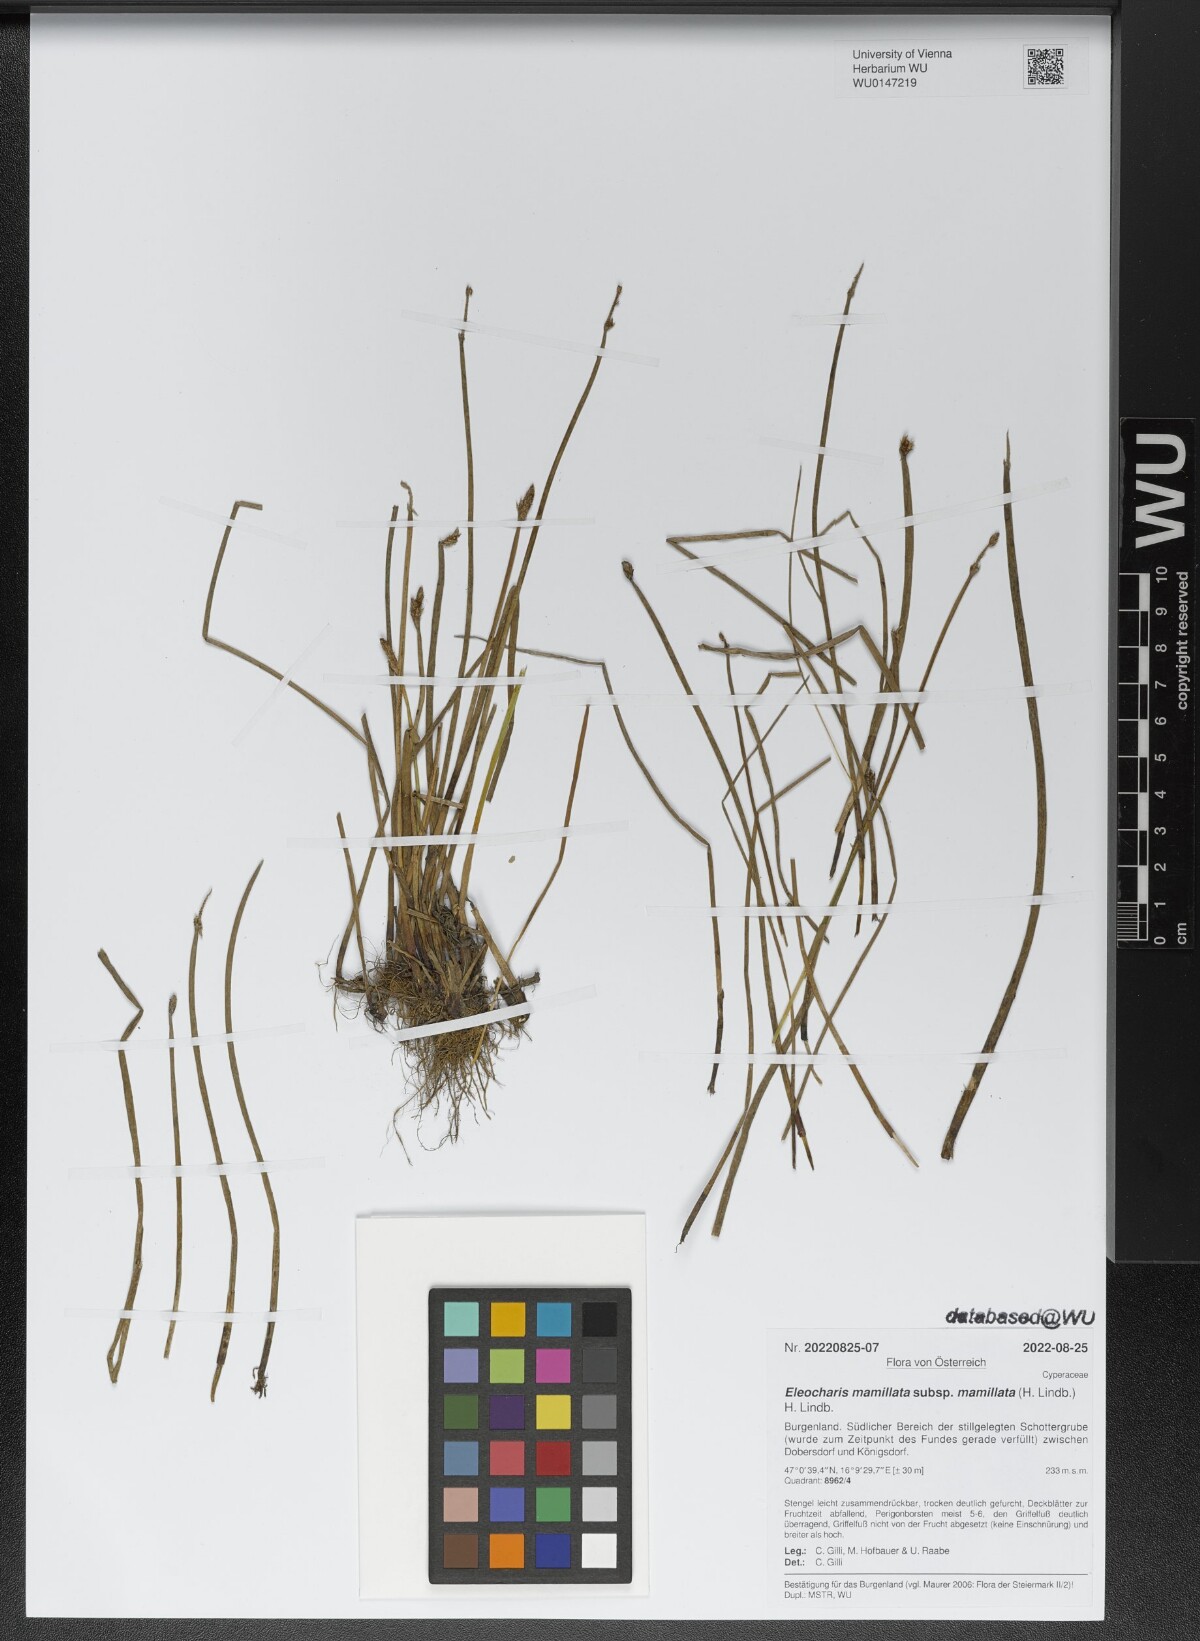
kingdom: Plantae
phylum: Tracheophyta
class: Liliopsida
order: Poales
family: Cyperaceae
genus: Eleocharis
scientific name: Eleocharis mamillata
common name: Northern spike-rush
